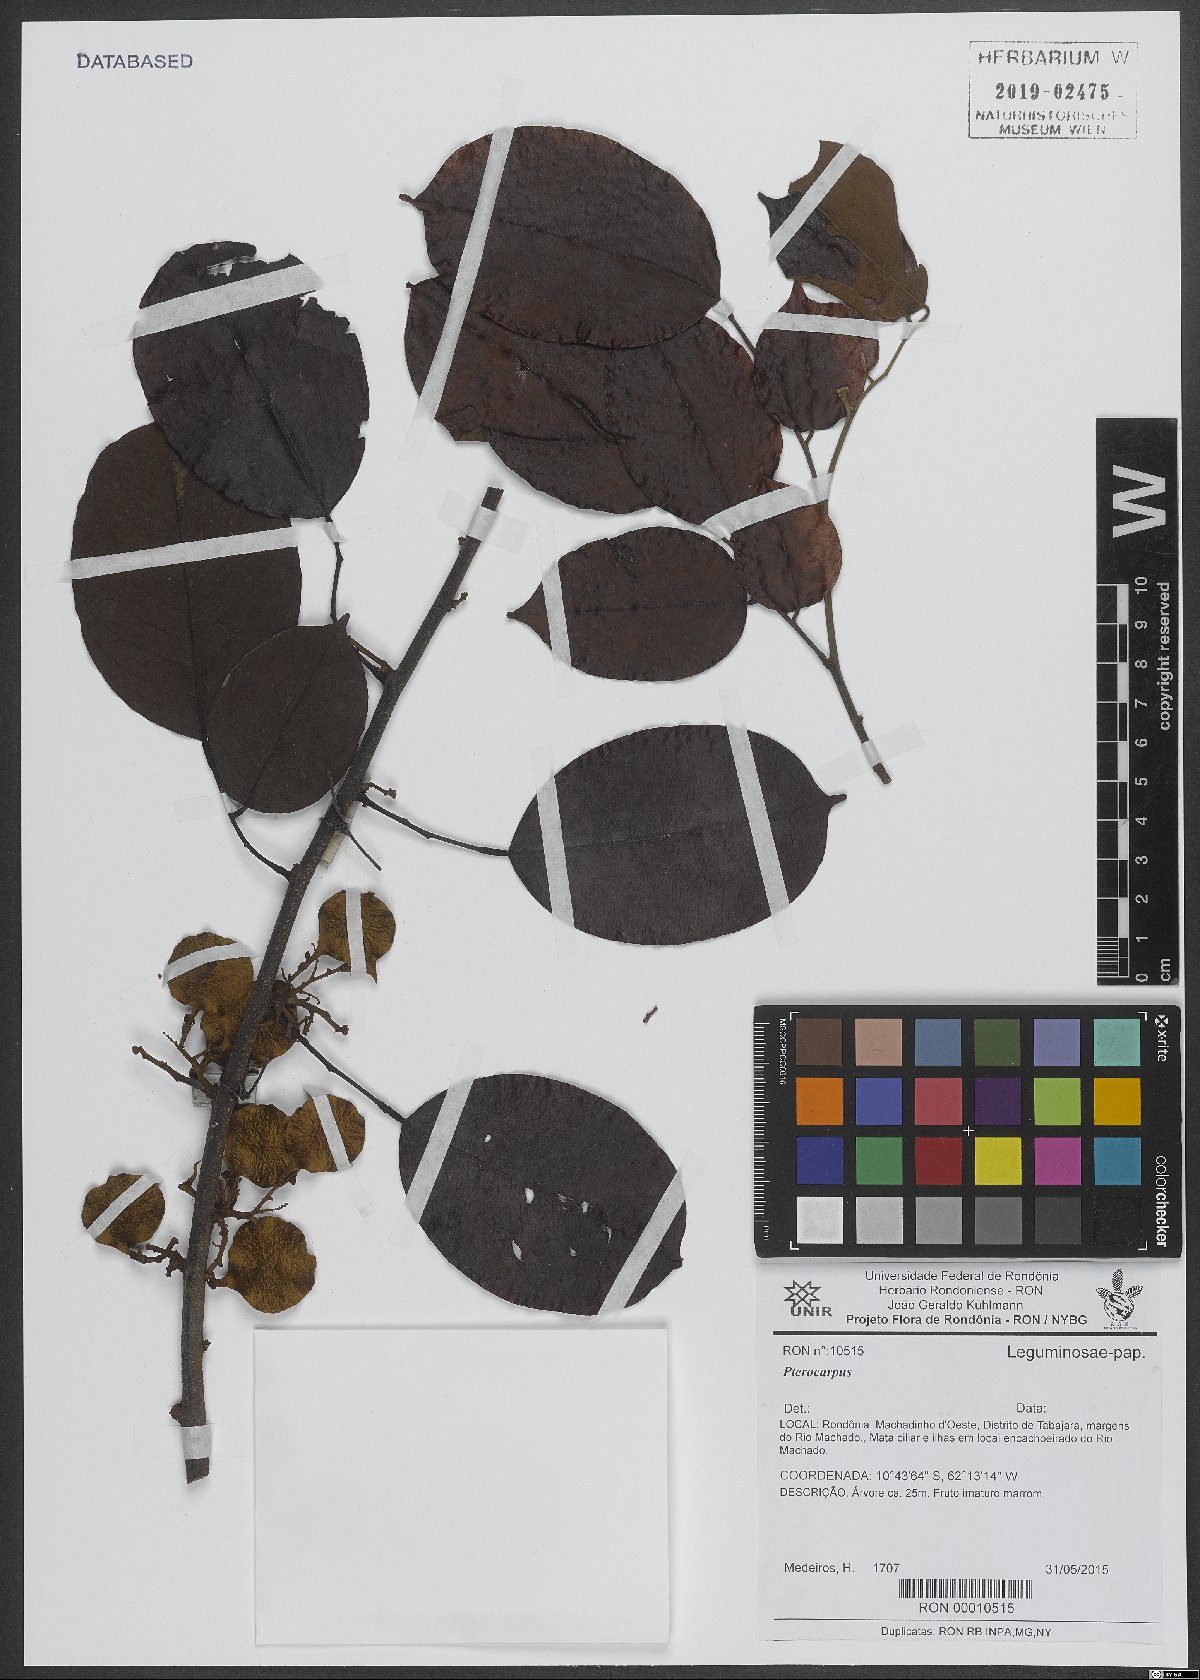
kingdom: Plantae
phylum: Tracheophyta
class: Magnoliopsida
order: Fabales
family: Fabaceae
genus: Pterocarpus
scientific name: Pterocarpus
